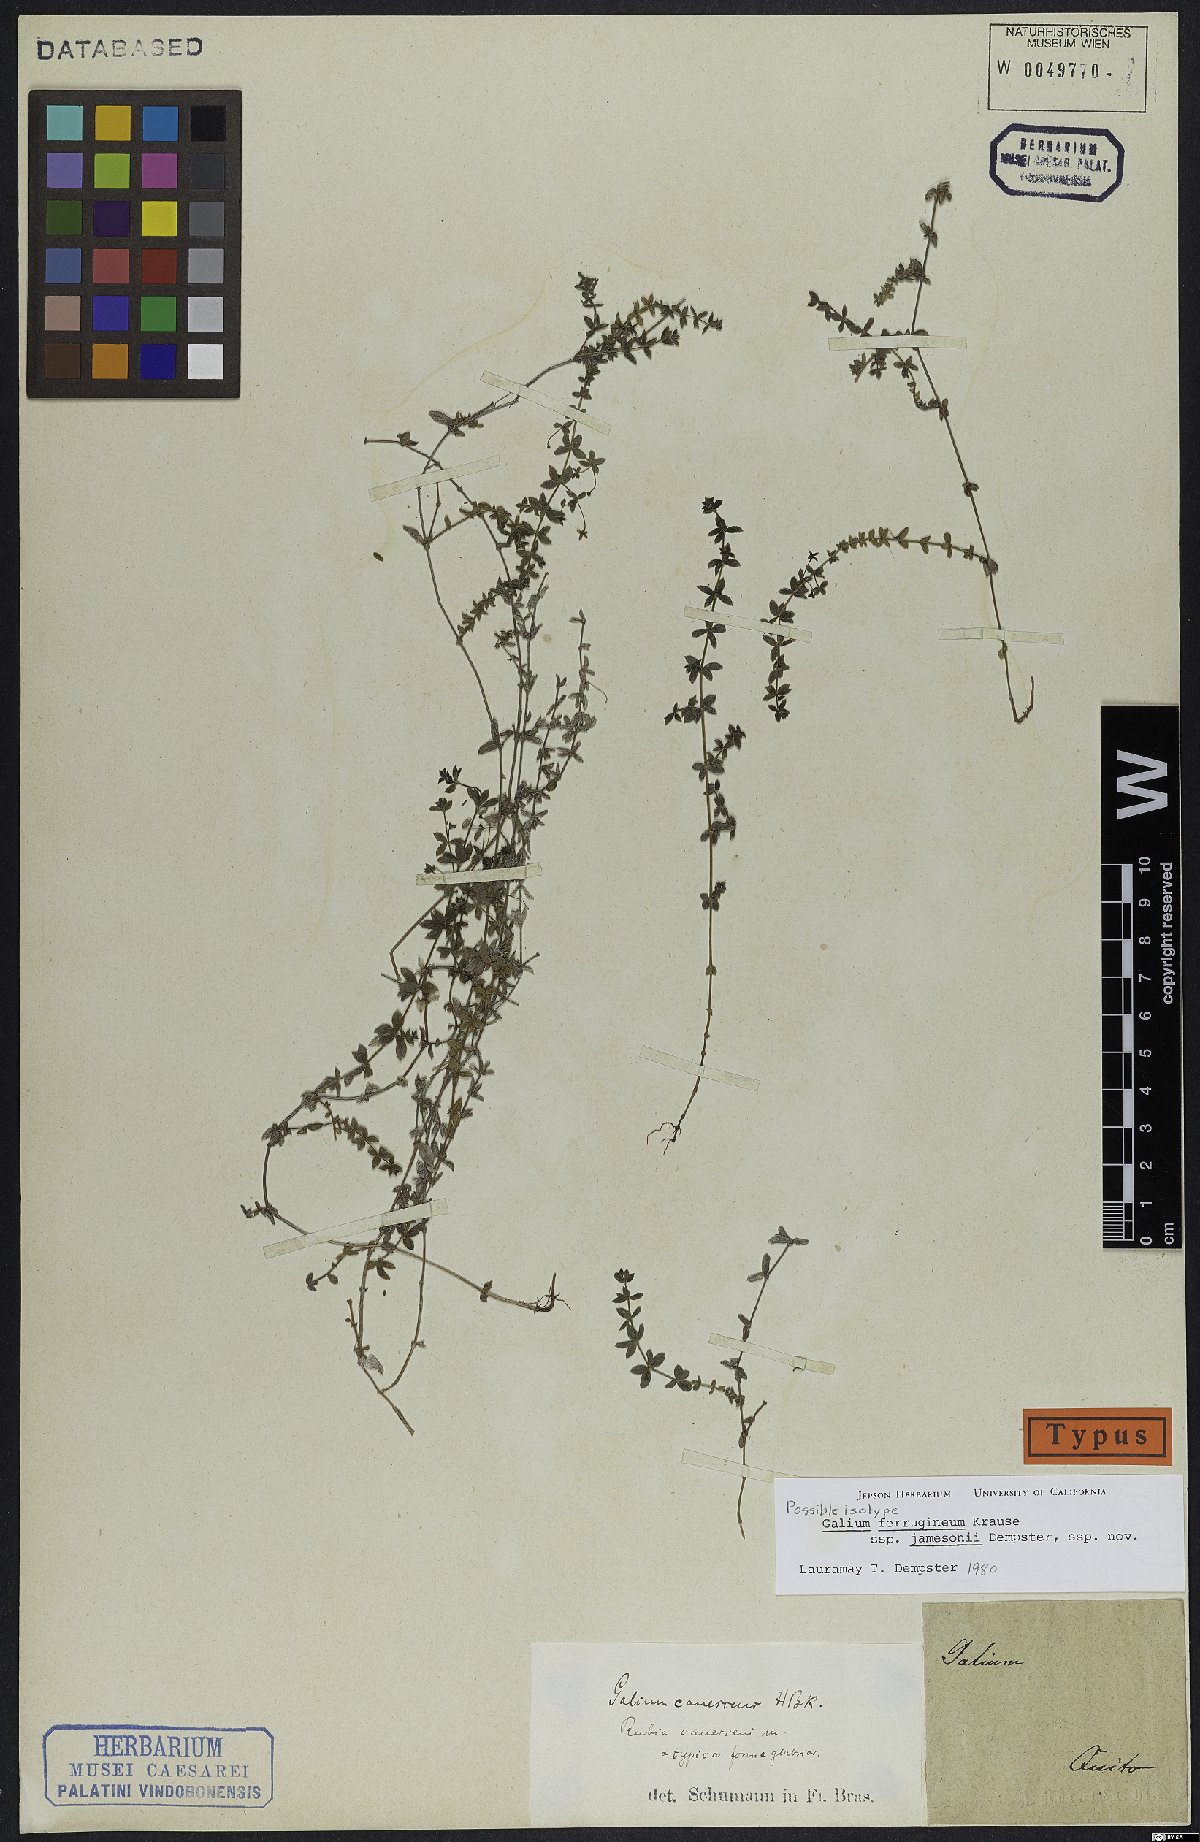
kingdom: Plantae
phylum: Tracheophyta
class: Magnoliopsida
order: Gentianales
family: Rubiaceae
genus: Galium
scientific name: Galium ferrugineum
